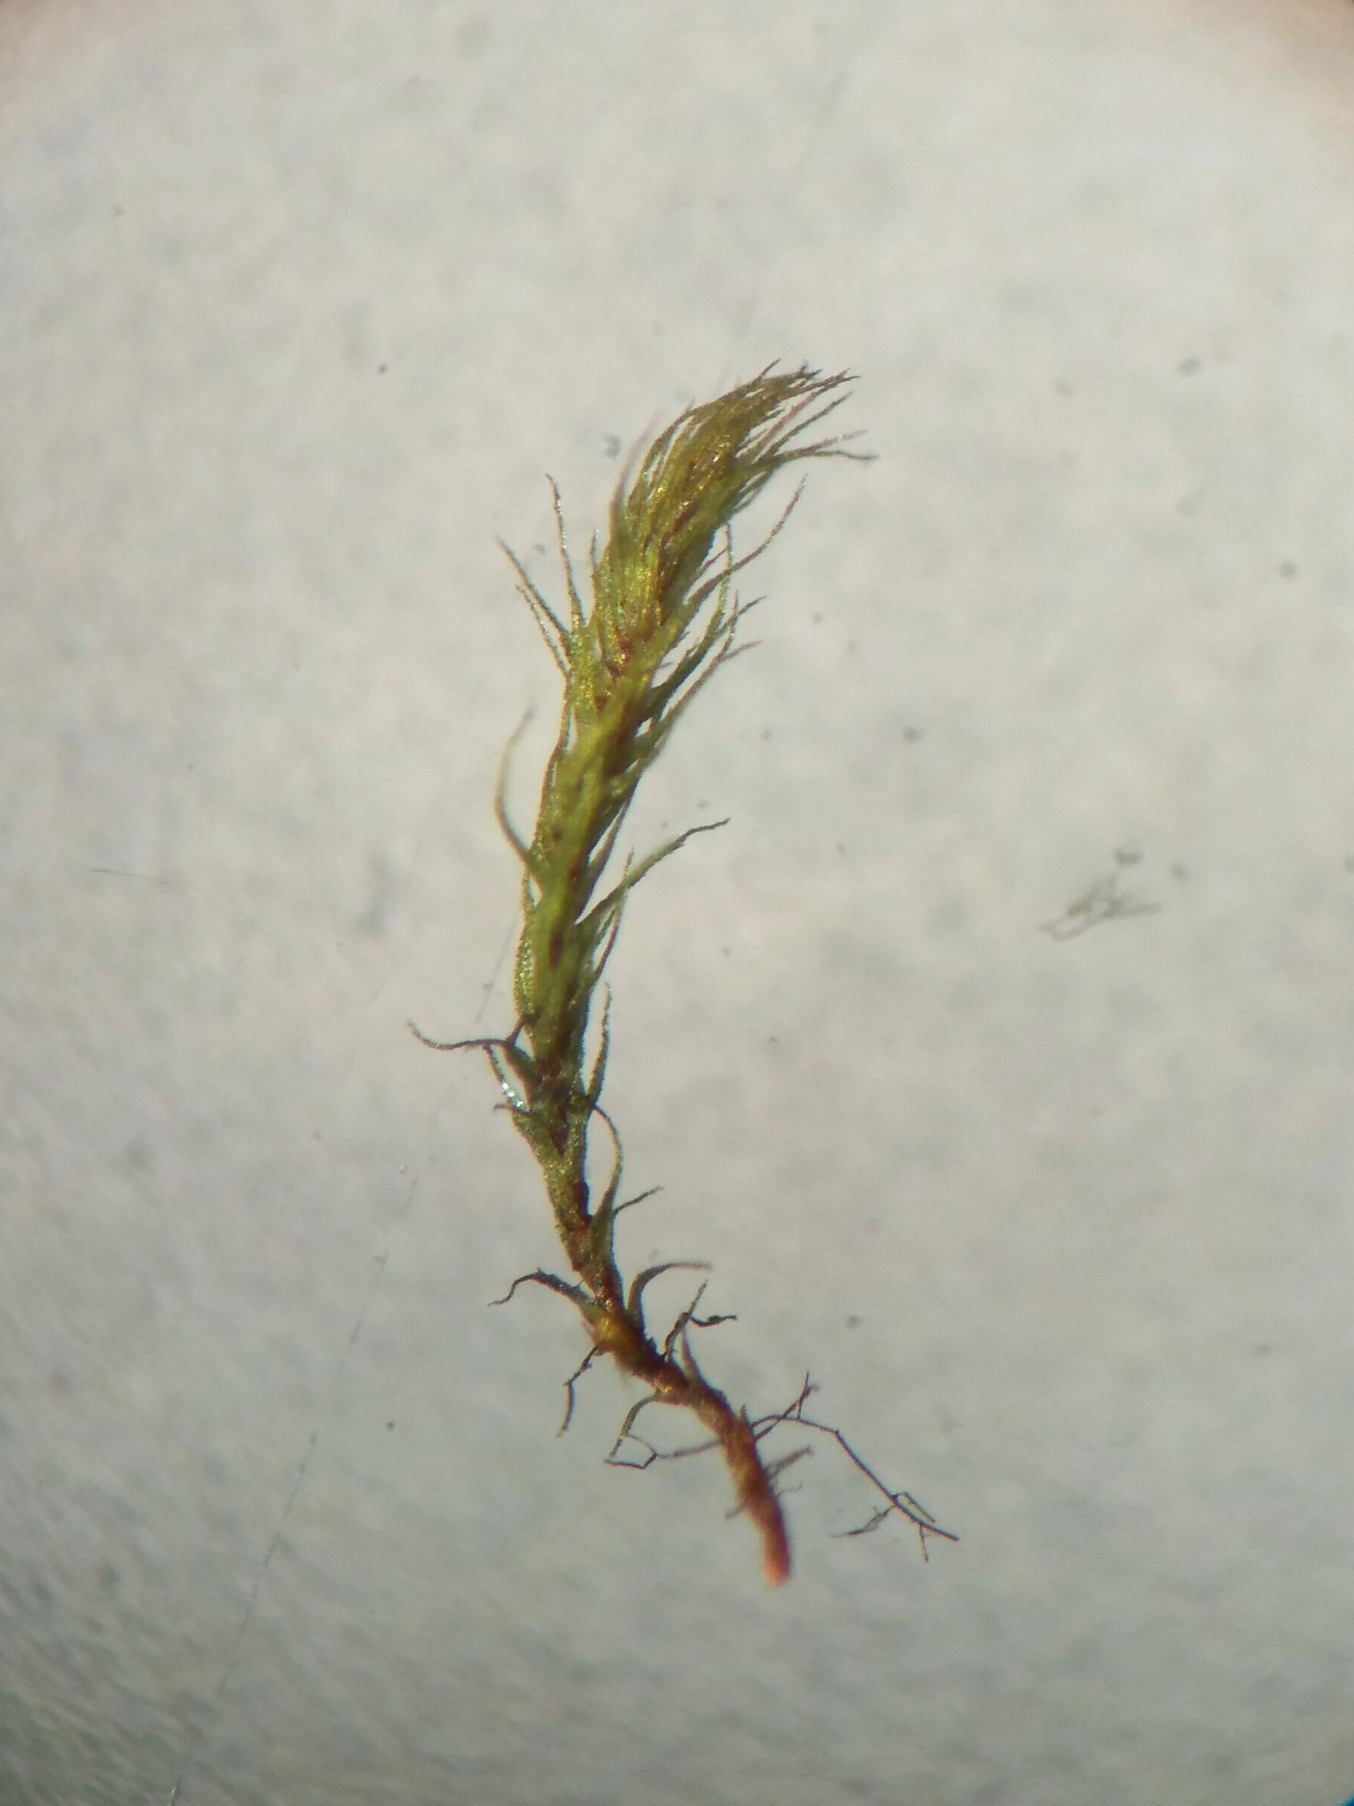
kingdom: Plantae
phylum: Bryophyta
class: Bryopsida
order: Bartramiales
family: Bartramiaceae
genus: Philonotis
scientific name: Philonotis capillaris
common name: Arnells vandtuemos
